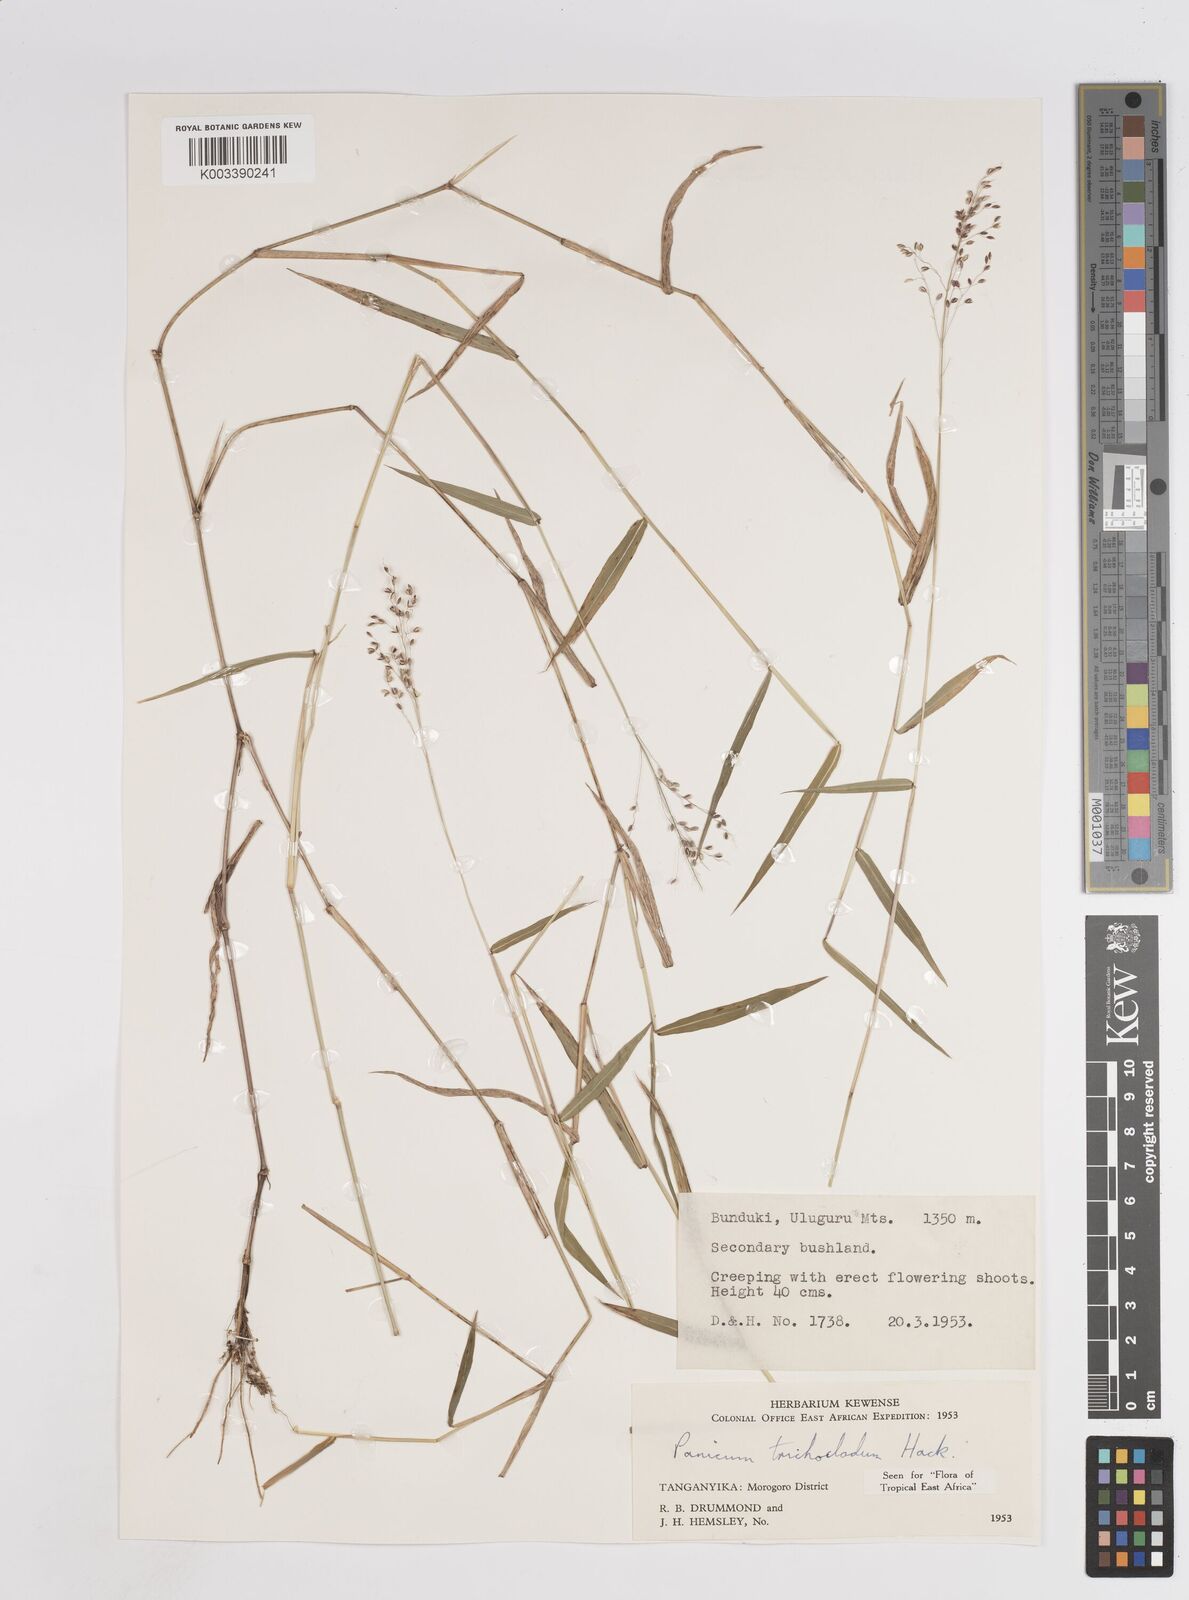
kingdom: Plantae
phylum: Tracheophyta
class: Liliopsida
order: Poales
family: Poaceae
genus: Panicum
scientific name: Panicum trichocladum
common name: Donkey grass
